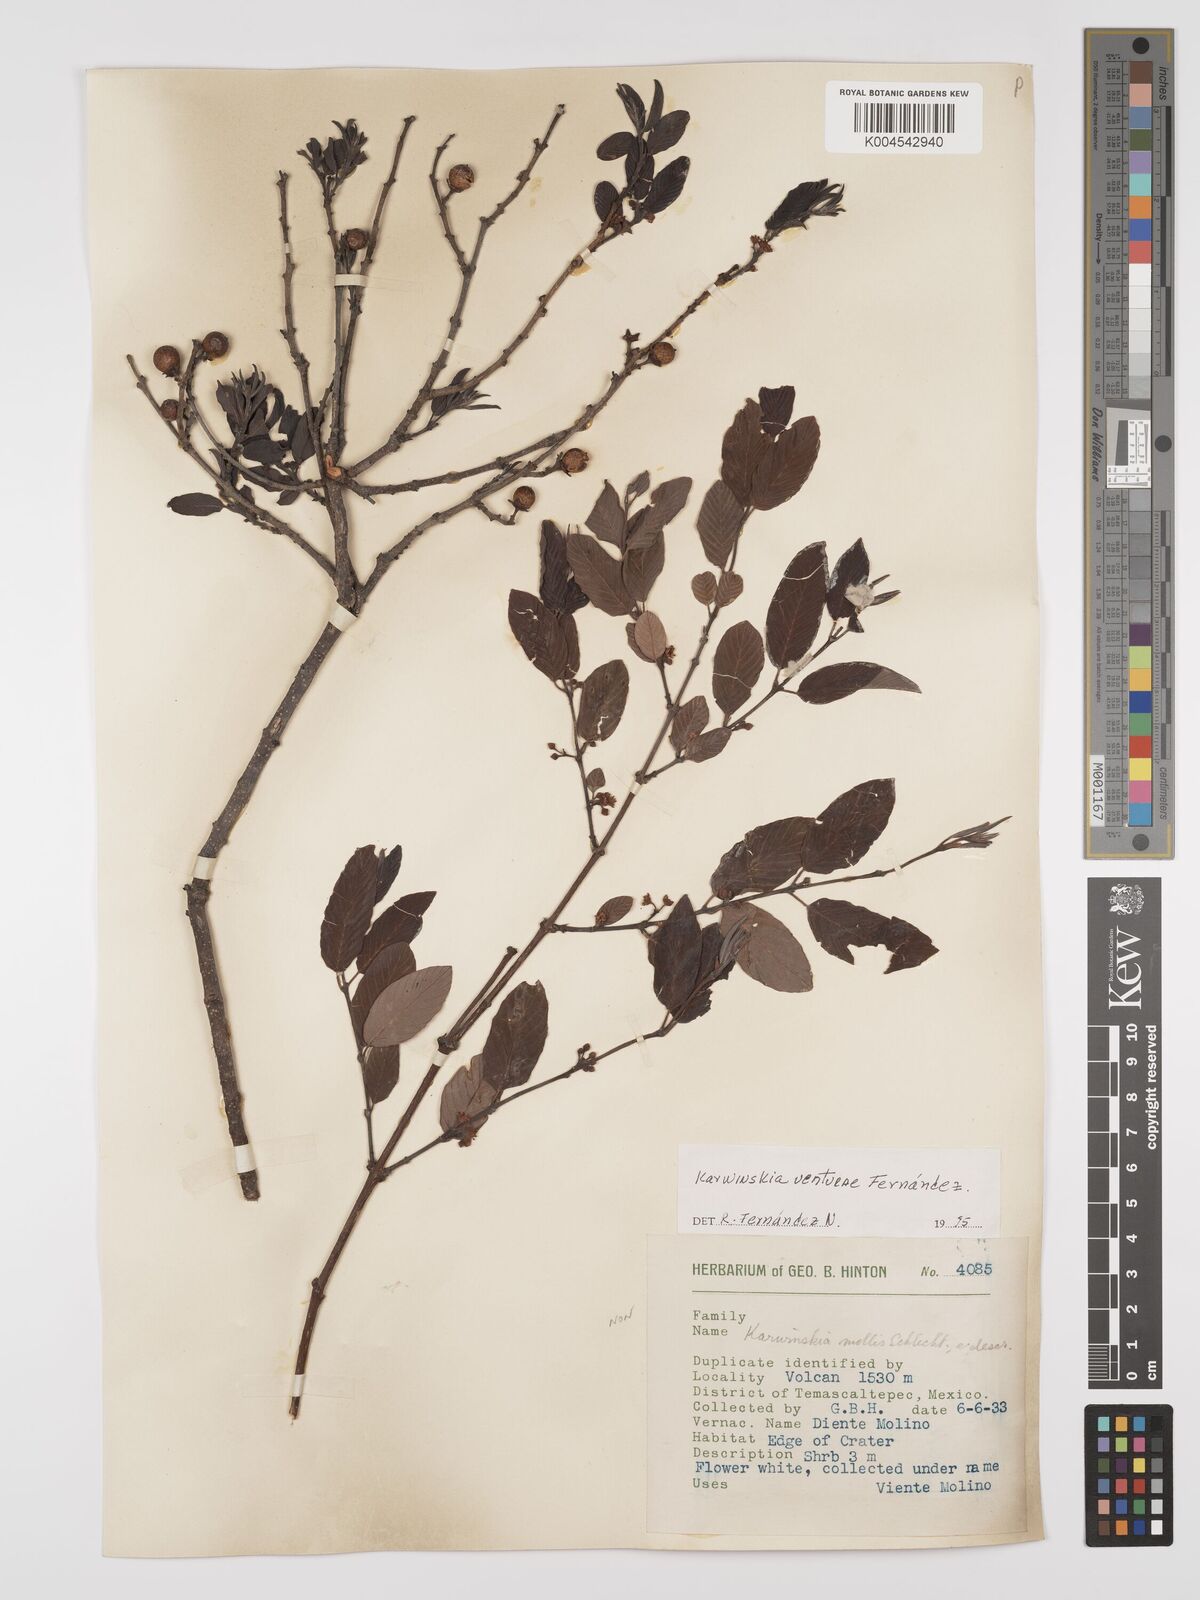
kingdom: Plantae
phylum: Tracheophyta
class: Magnoliopsida
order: Rosales
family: Rhamnaceae
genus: Karwinskia
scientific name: Karwinskia venturae
